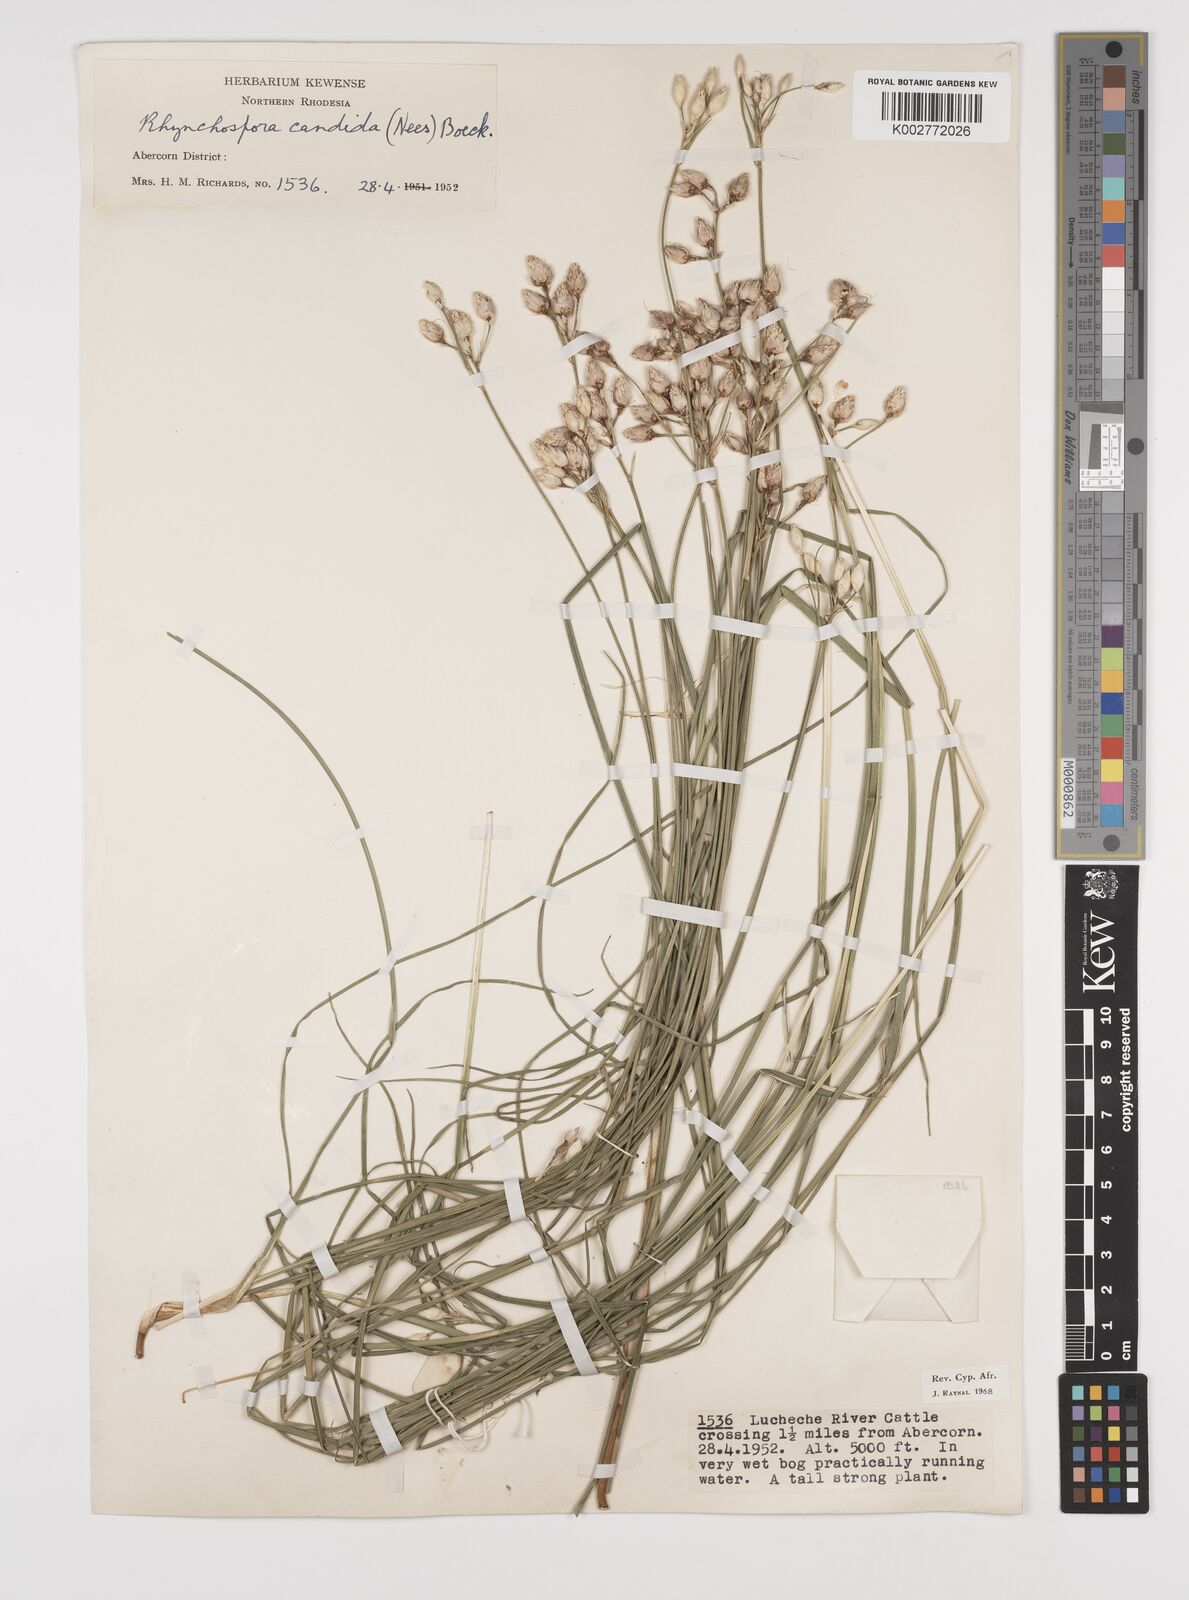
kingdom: Plantae
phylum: Tracheophyta
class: Liliopsida
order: Poales
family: Cyperaceae
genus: Rhynchospora
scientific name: Rhynchospora candida
